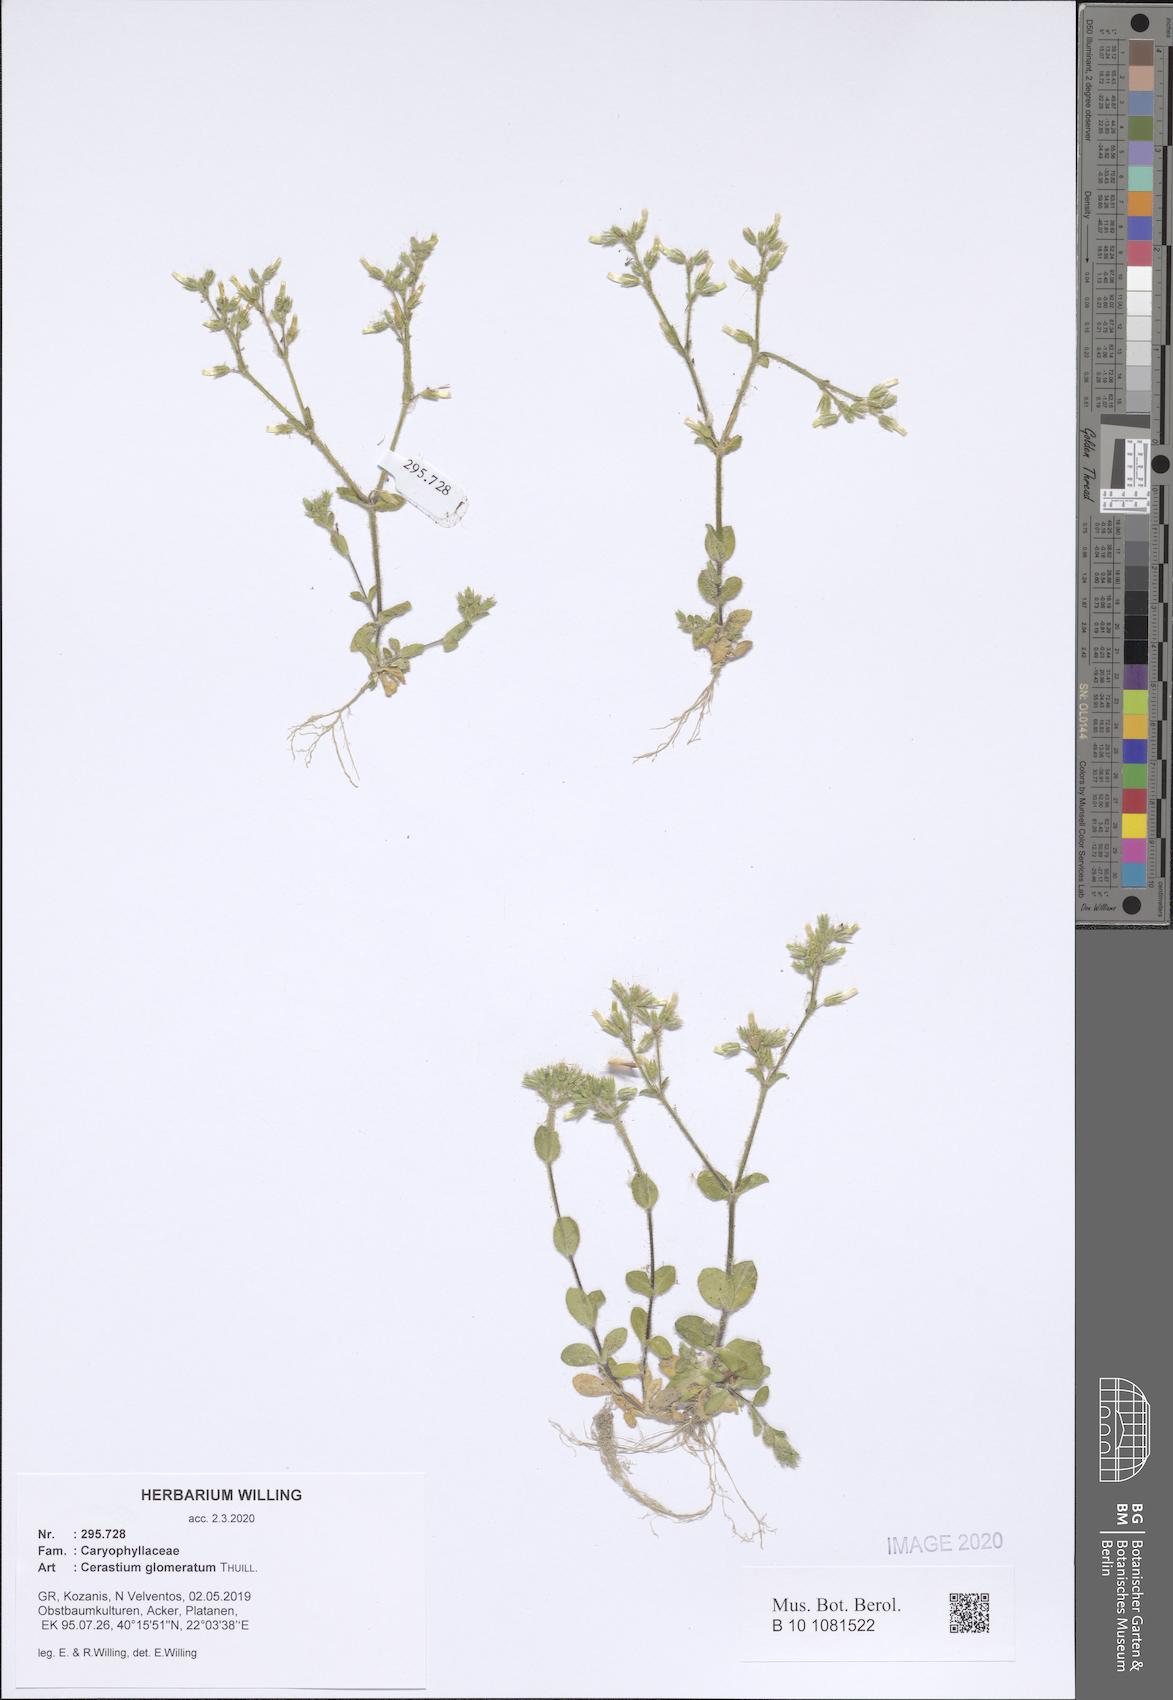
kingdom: Plantae
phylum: Tracheophyta
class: Magnoliopsida
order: Caryophyllales
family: Caryophyllaceae
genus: Cerastium
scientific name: Cerastium glomeratum
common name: Sticky chickweed
